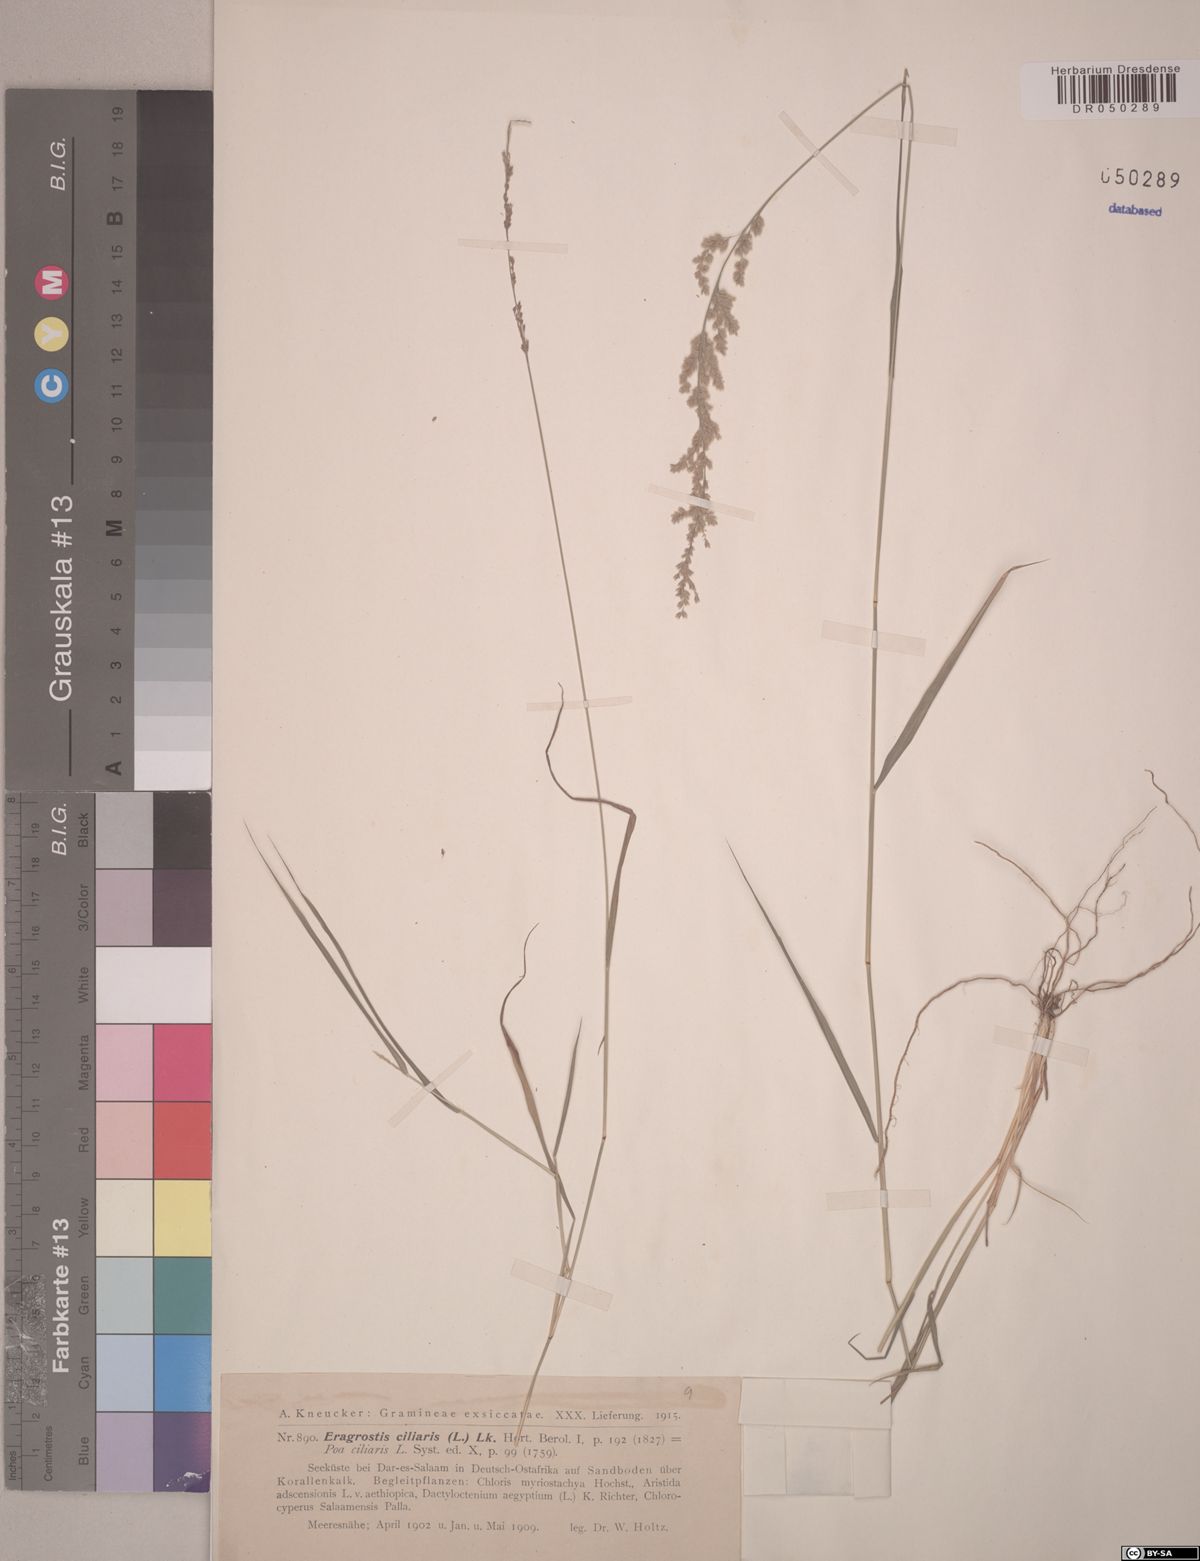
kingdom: Plantae
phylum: Tracheophyta
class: Liliopsida
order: Poales
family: Poaceae
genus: Eragrostis
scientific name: Eragrostis ciliaris
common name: Gophertail lovegrass
